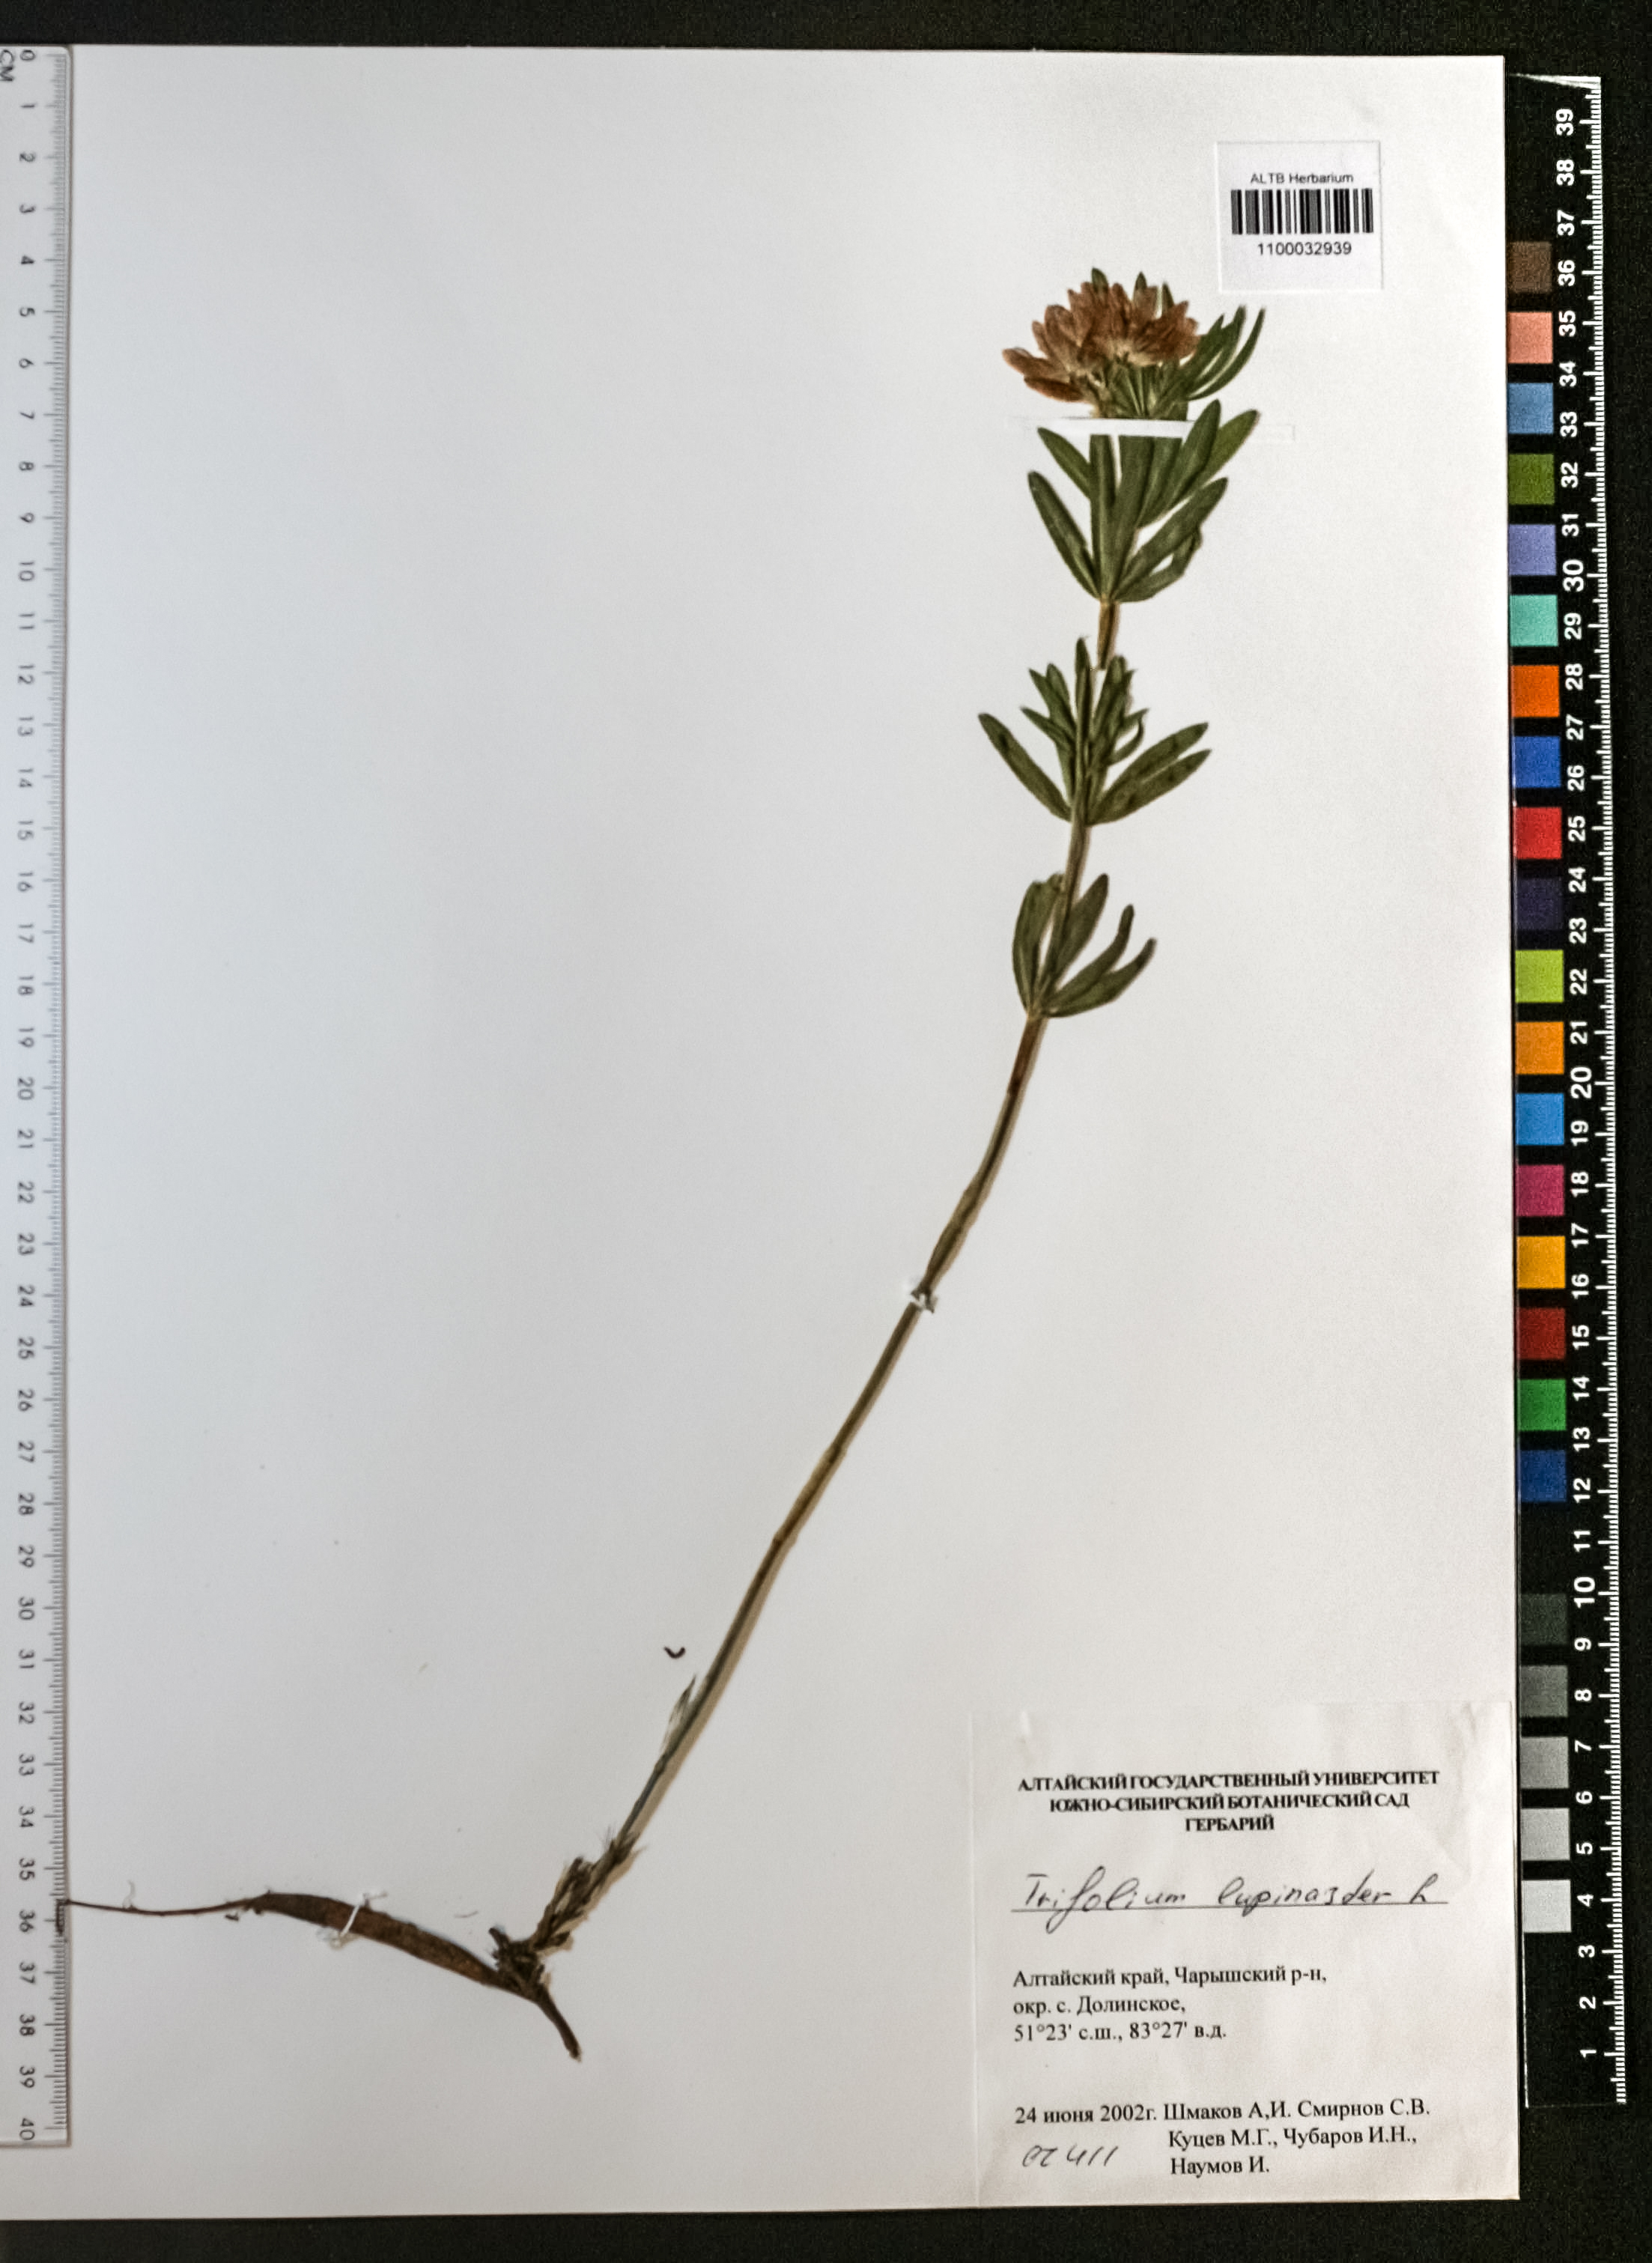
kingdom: Plantae
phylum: Tracheophyta
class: Magnoliopsida
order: Fabales
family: Fabaceae
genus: Trifolium
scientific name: Trifolium lupinaster
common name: Lupine clover
